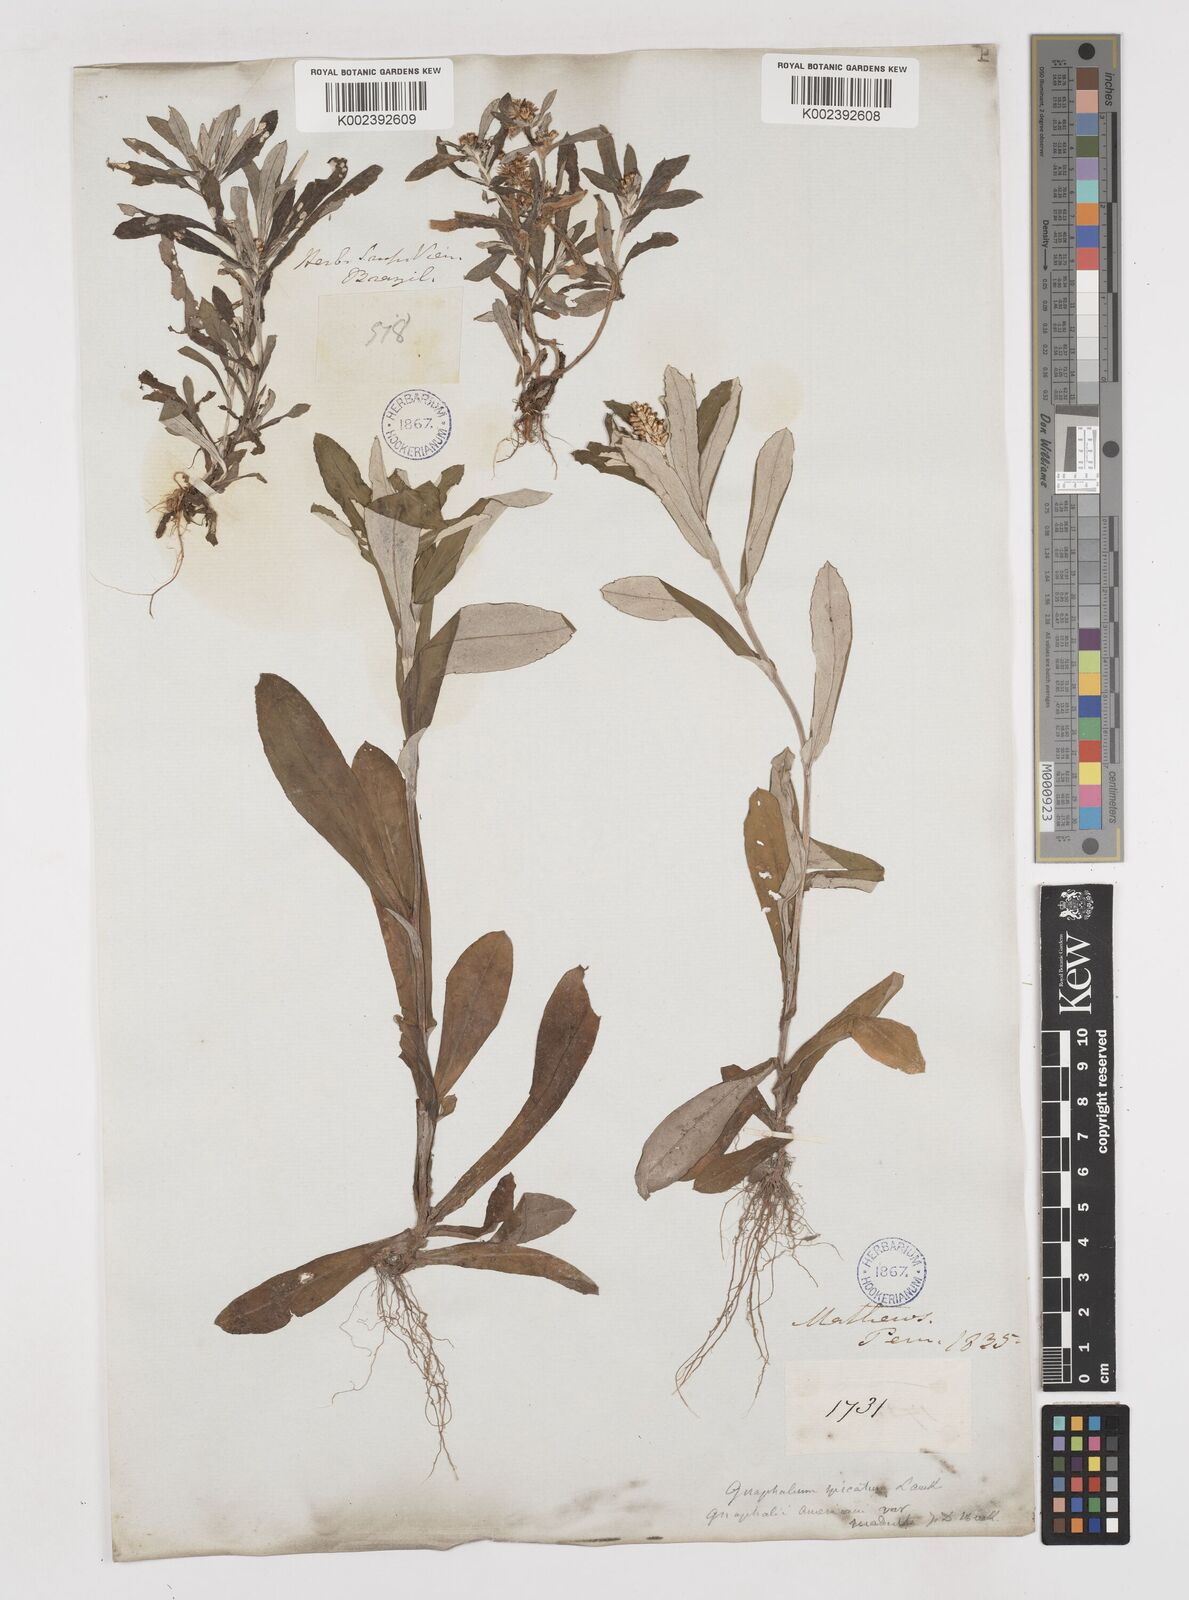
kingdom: Plantae
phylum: Tracheophyta
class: Magnoliopsida
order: Asterales
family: Asteraceae
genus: Gamochaeta
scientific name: Gamochaeta americana
